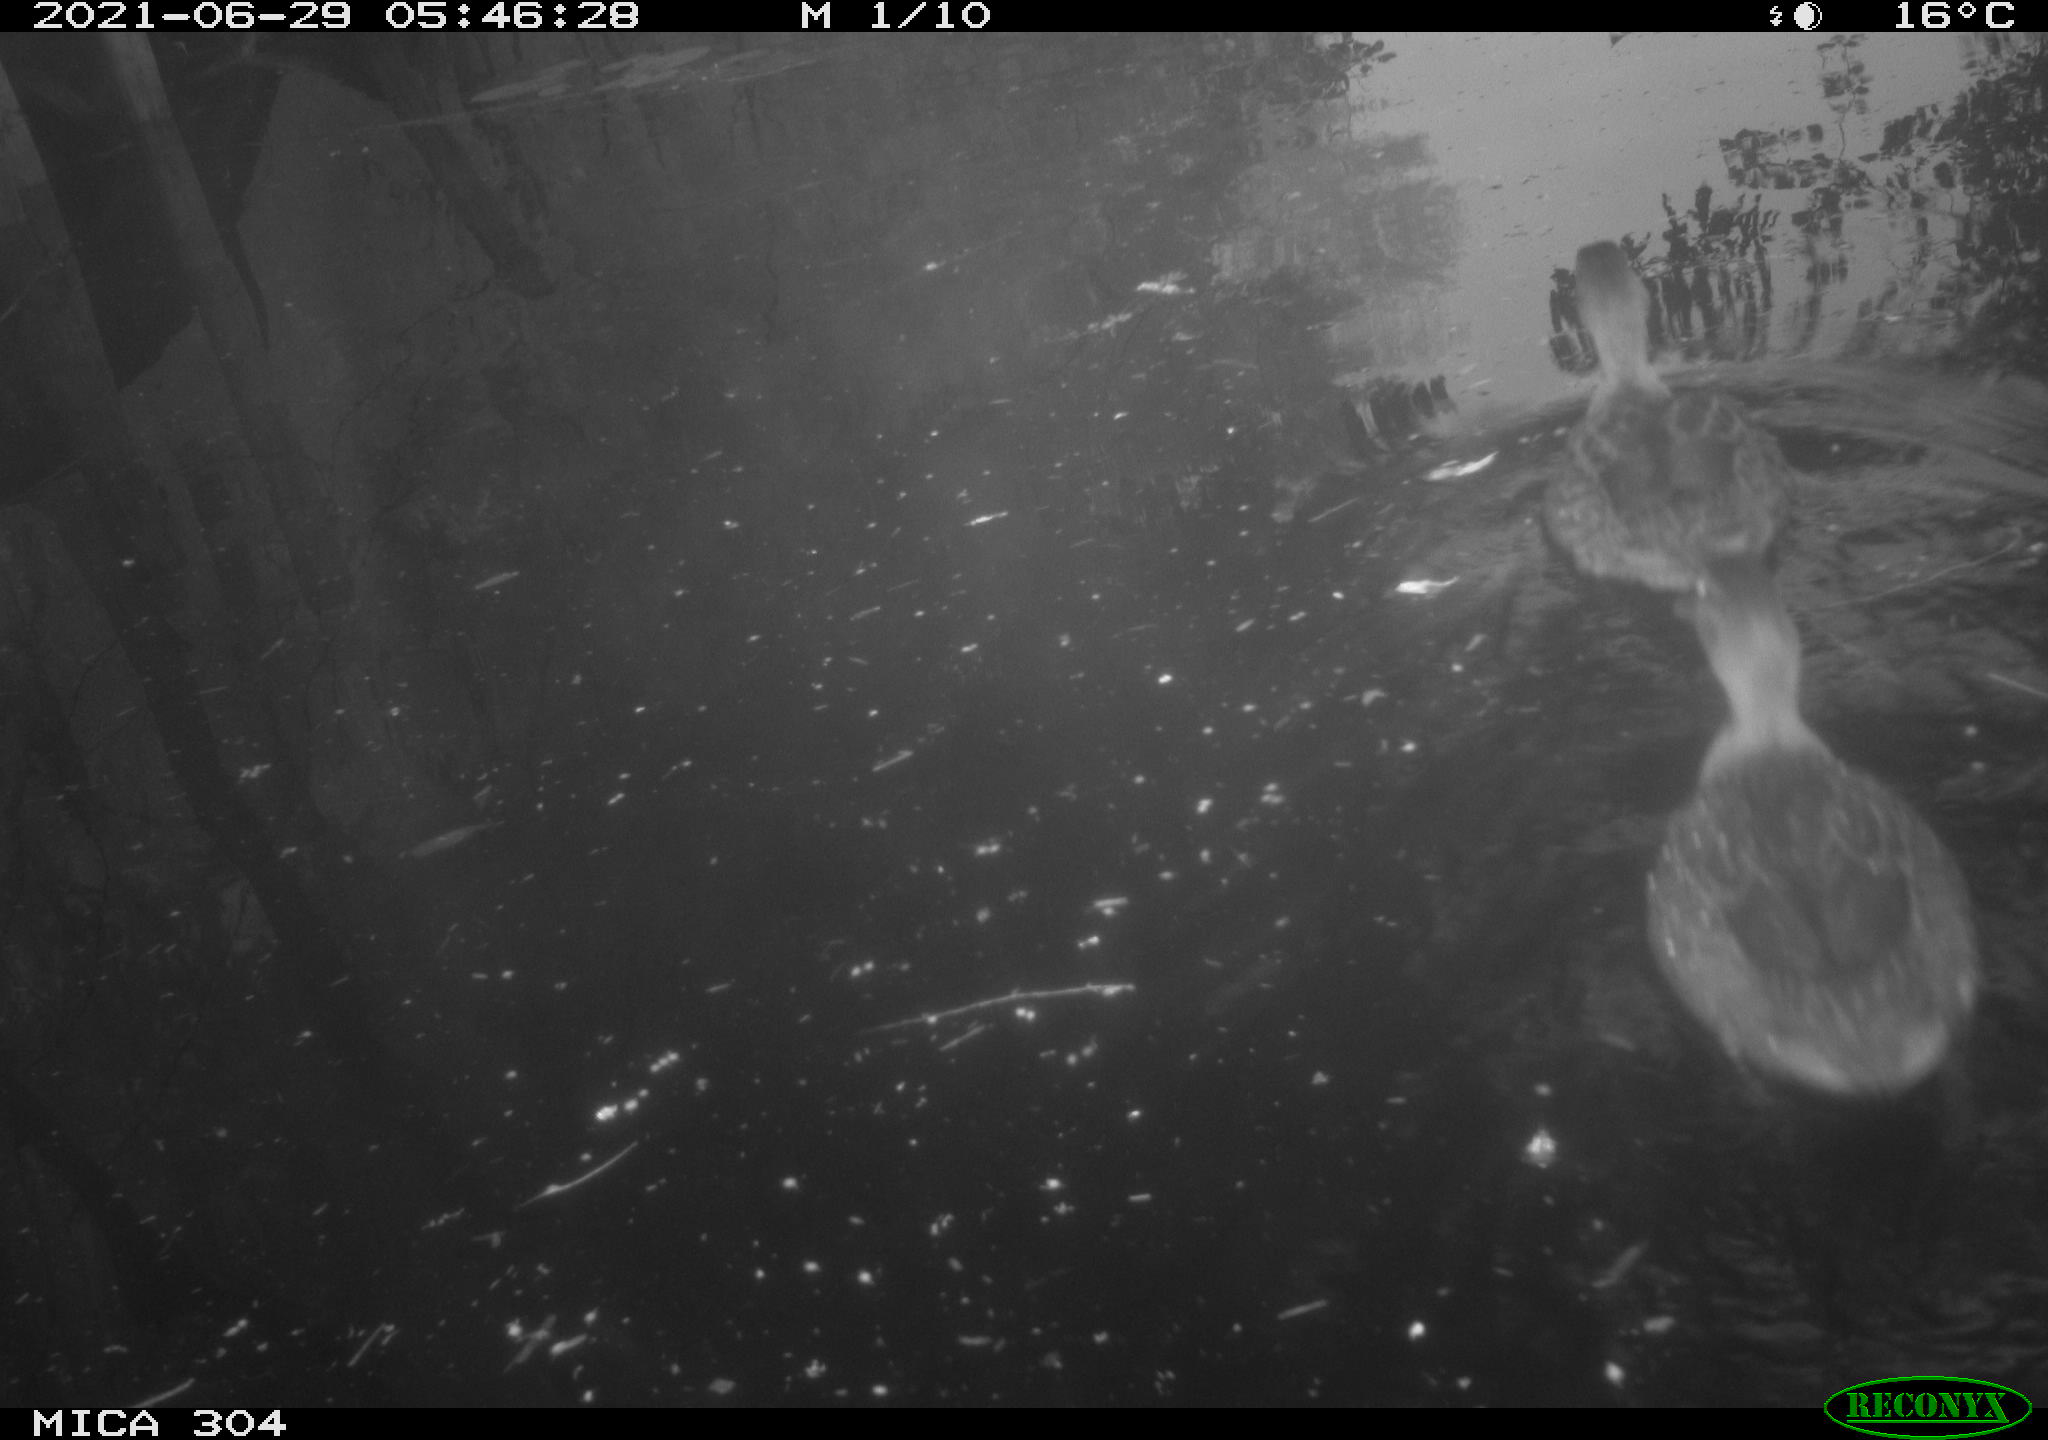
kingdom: Animalia
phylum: Chordata
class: Aves
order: Anseriformes
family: Anatidae
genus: Anas
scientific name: Anas platyrhynchos
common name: Mallard
